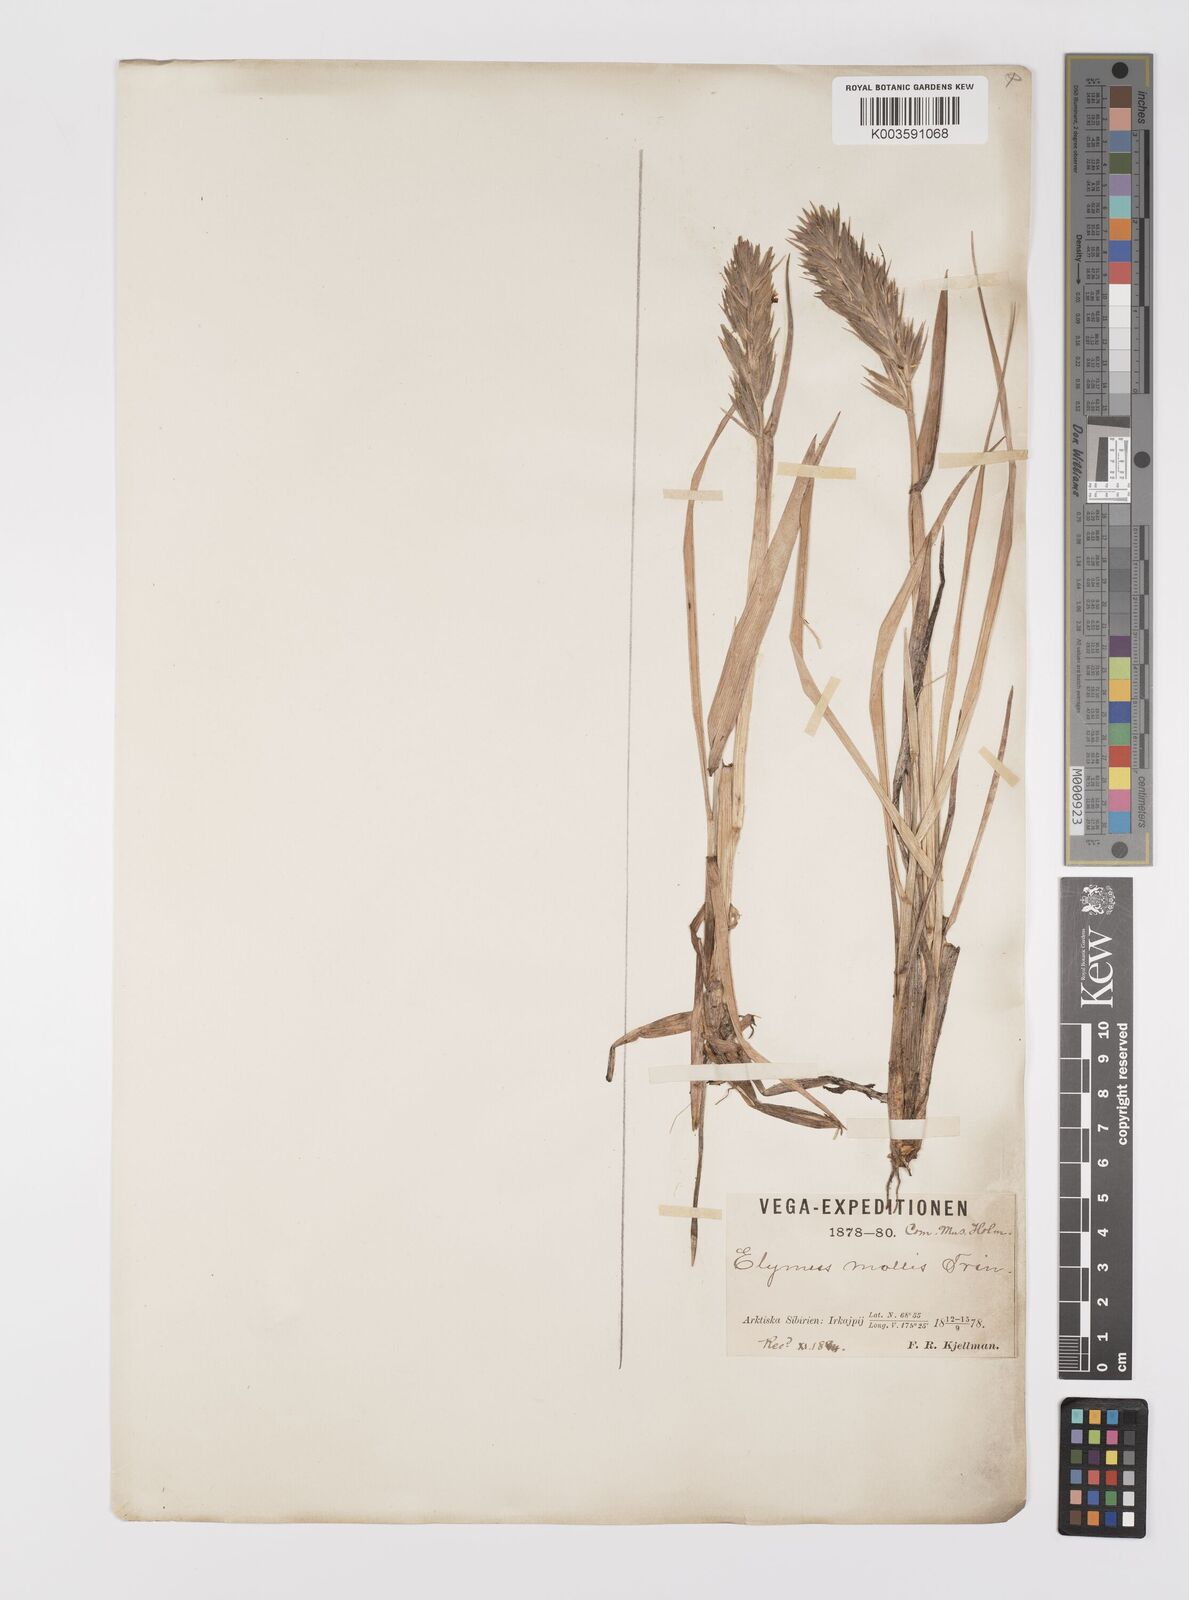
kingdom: Plantae
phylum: Tracheophyta
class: Liliopsida
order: Poales
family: Poaceae
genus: Leymus
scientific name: Leymus mollis
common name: American dune grass
